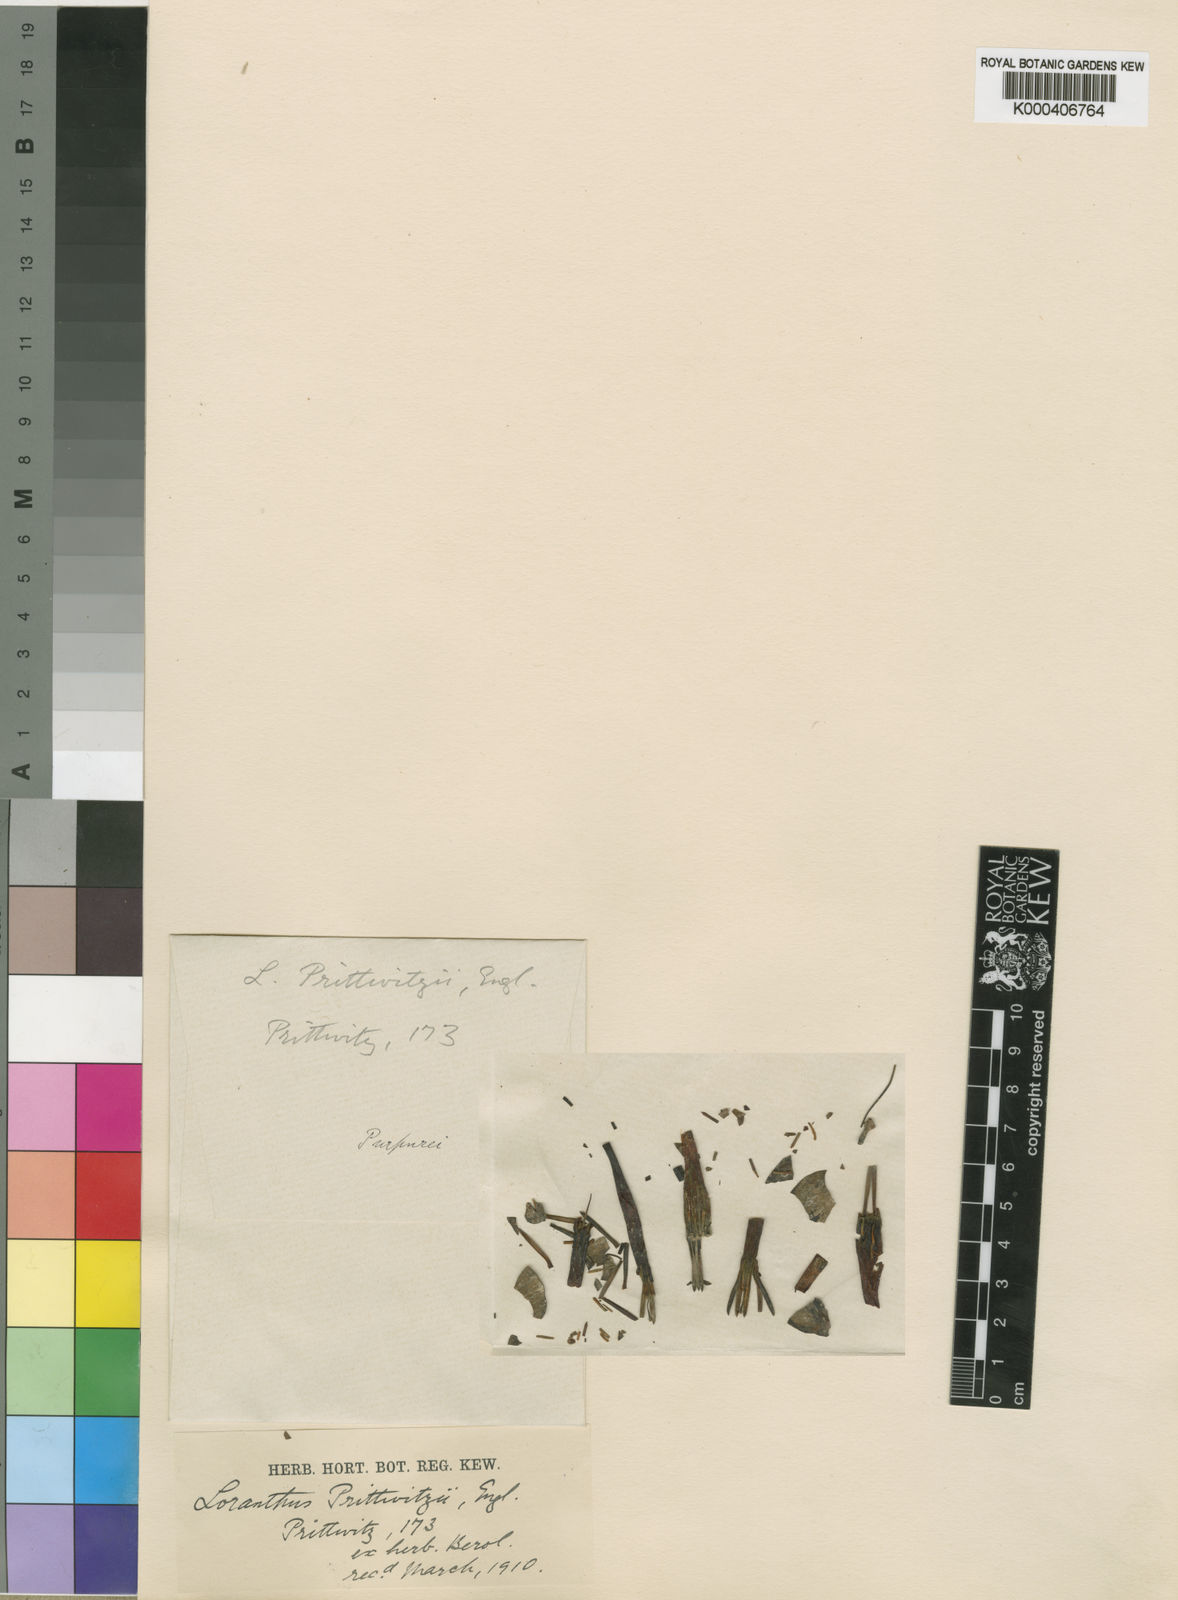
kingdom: Plantae
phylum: Tracheophyta
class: Magnoliopsida
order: Santalales
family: Loranthaceae
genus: Agelanthus
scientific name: Agelanthus irangensis
